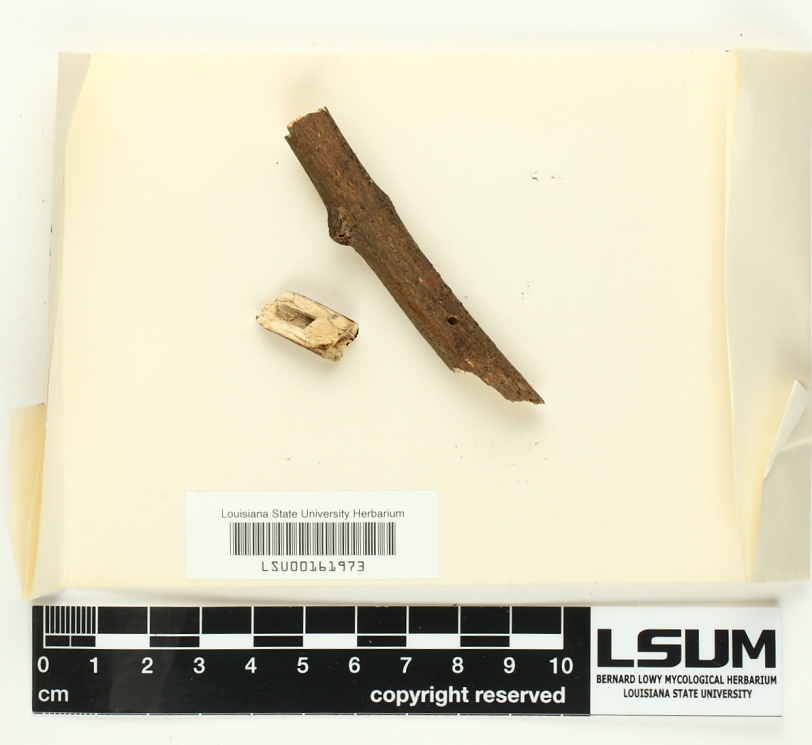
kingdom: Fungi
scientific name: Fungi
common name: Fungi
